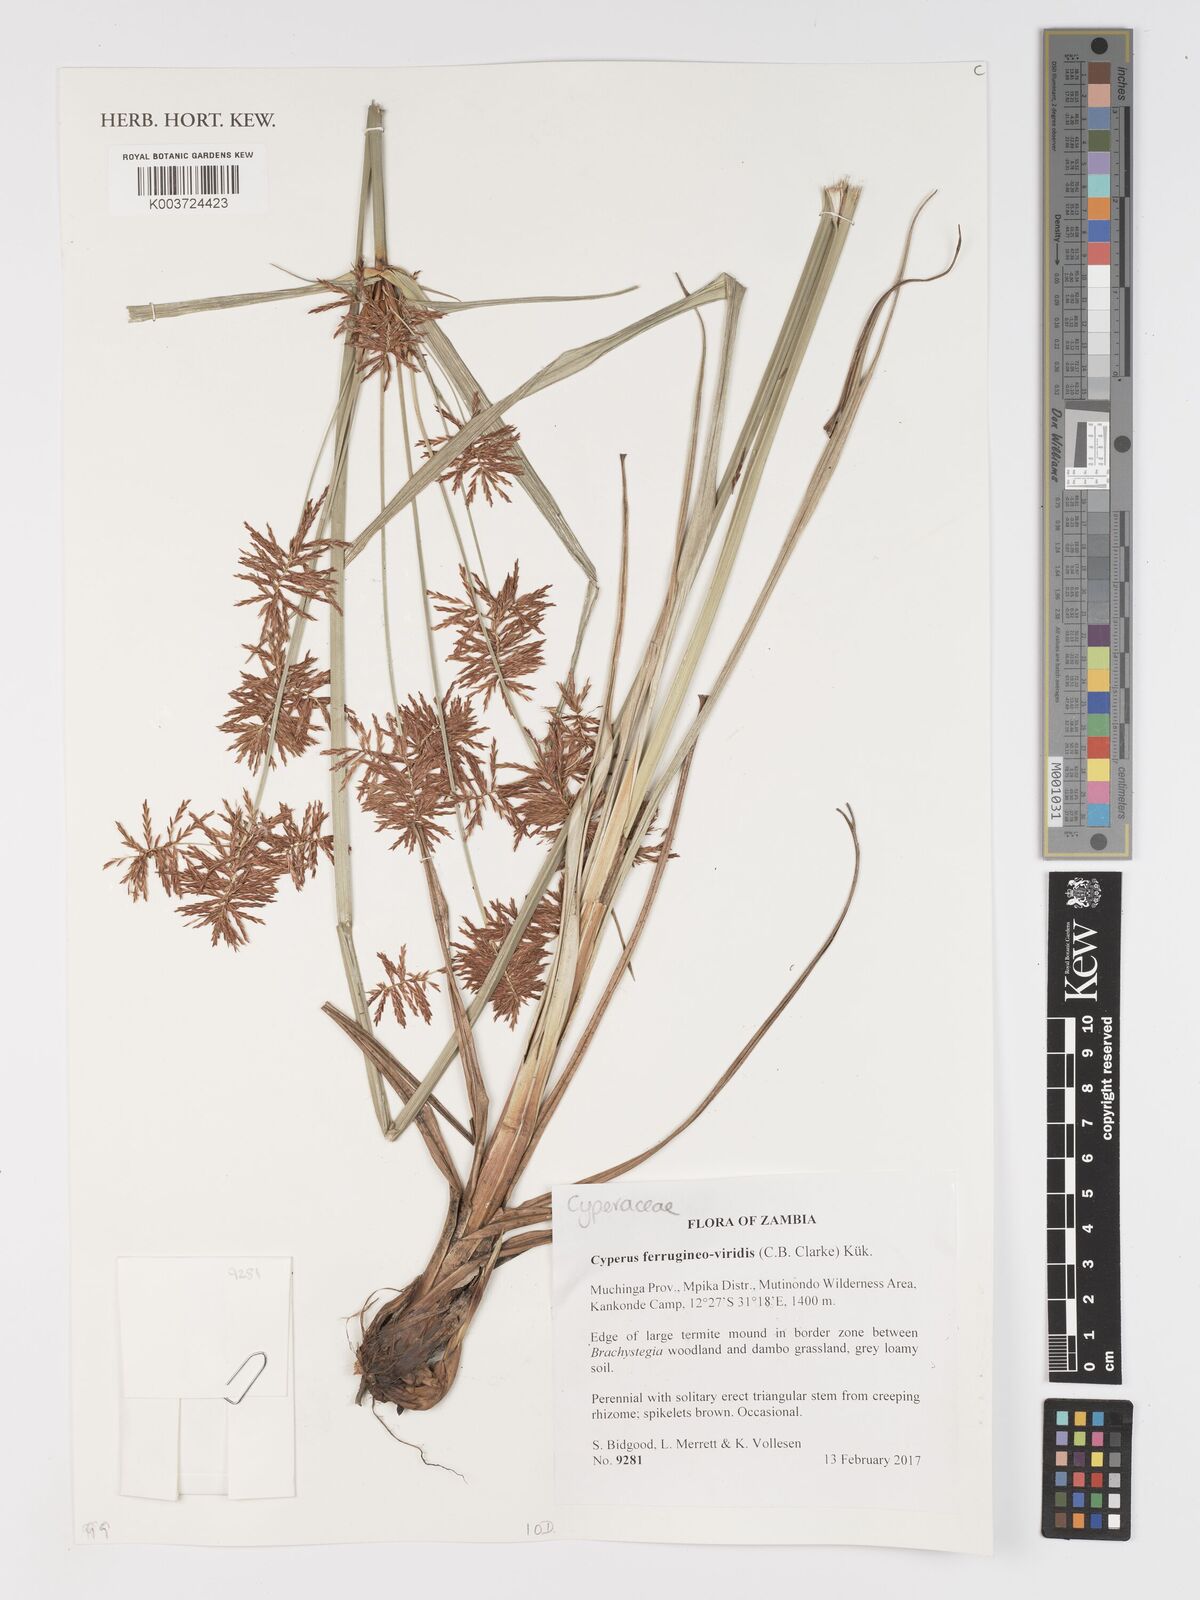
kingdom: Plantae
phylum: Tracheophyta
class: Liliopsida
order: Poales
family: Cyperaceae
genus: Cyperus
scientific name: Cyperus ferrugineoviridis
